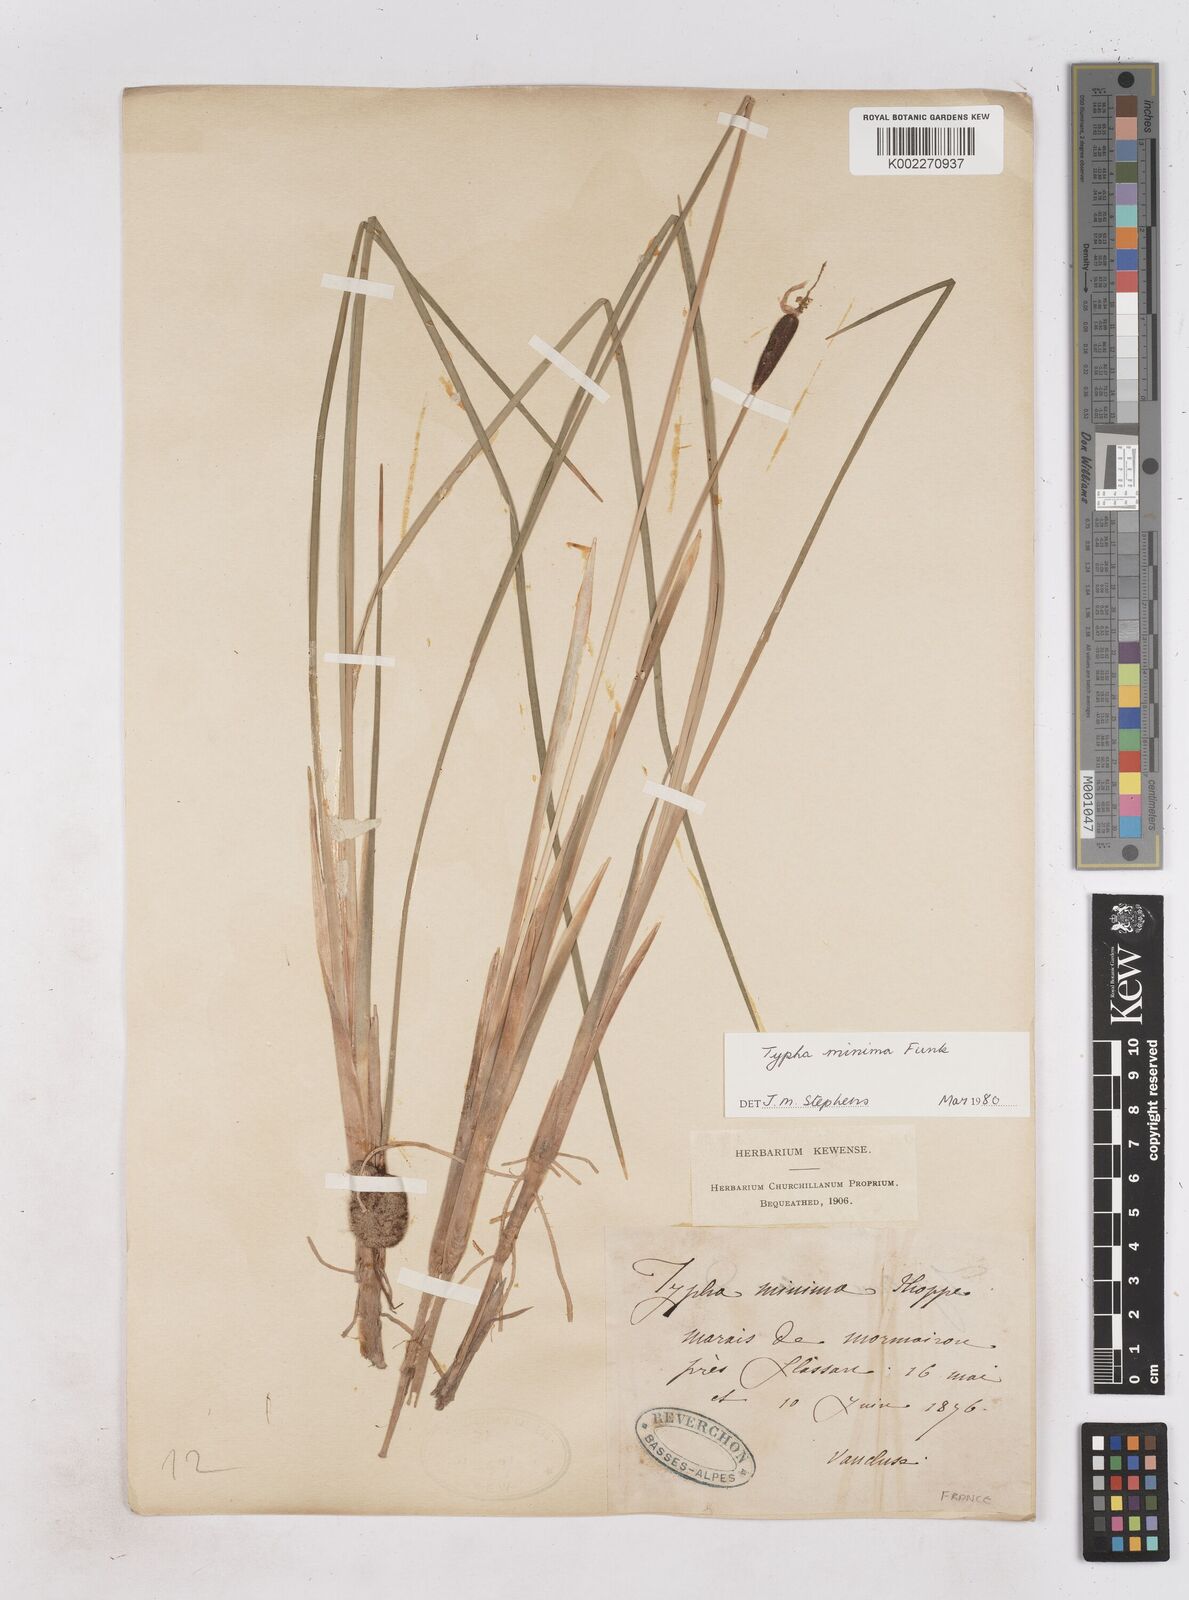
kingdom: Plantae
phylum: Tracheophyta
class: Liliopsida
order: Poales
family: Typhaceae
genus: Typha
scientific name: Typha
